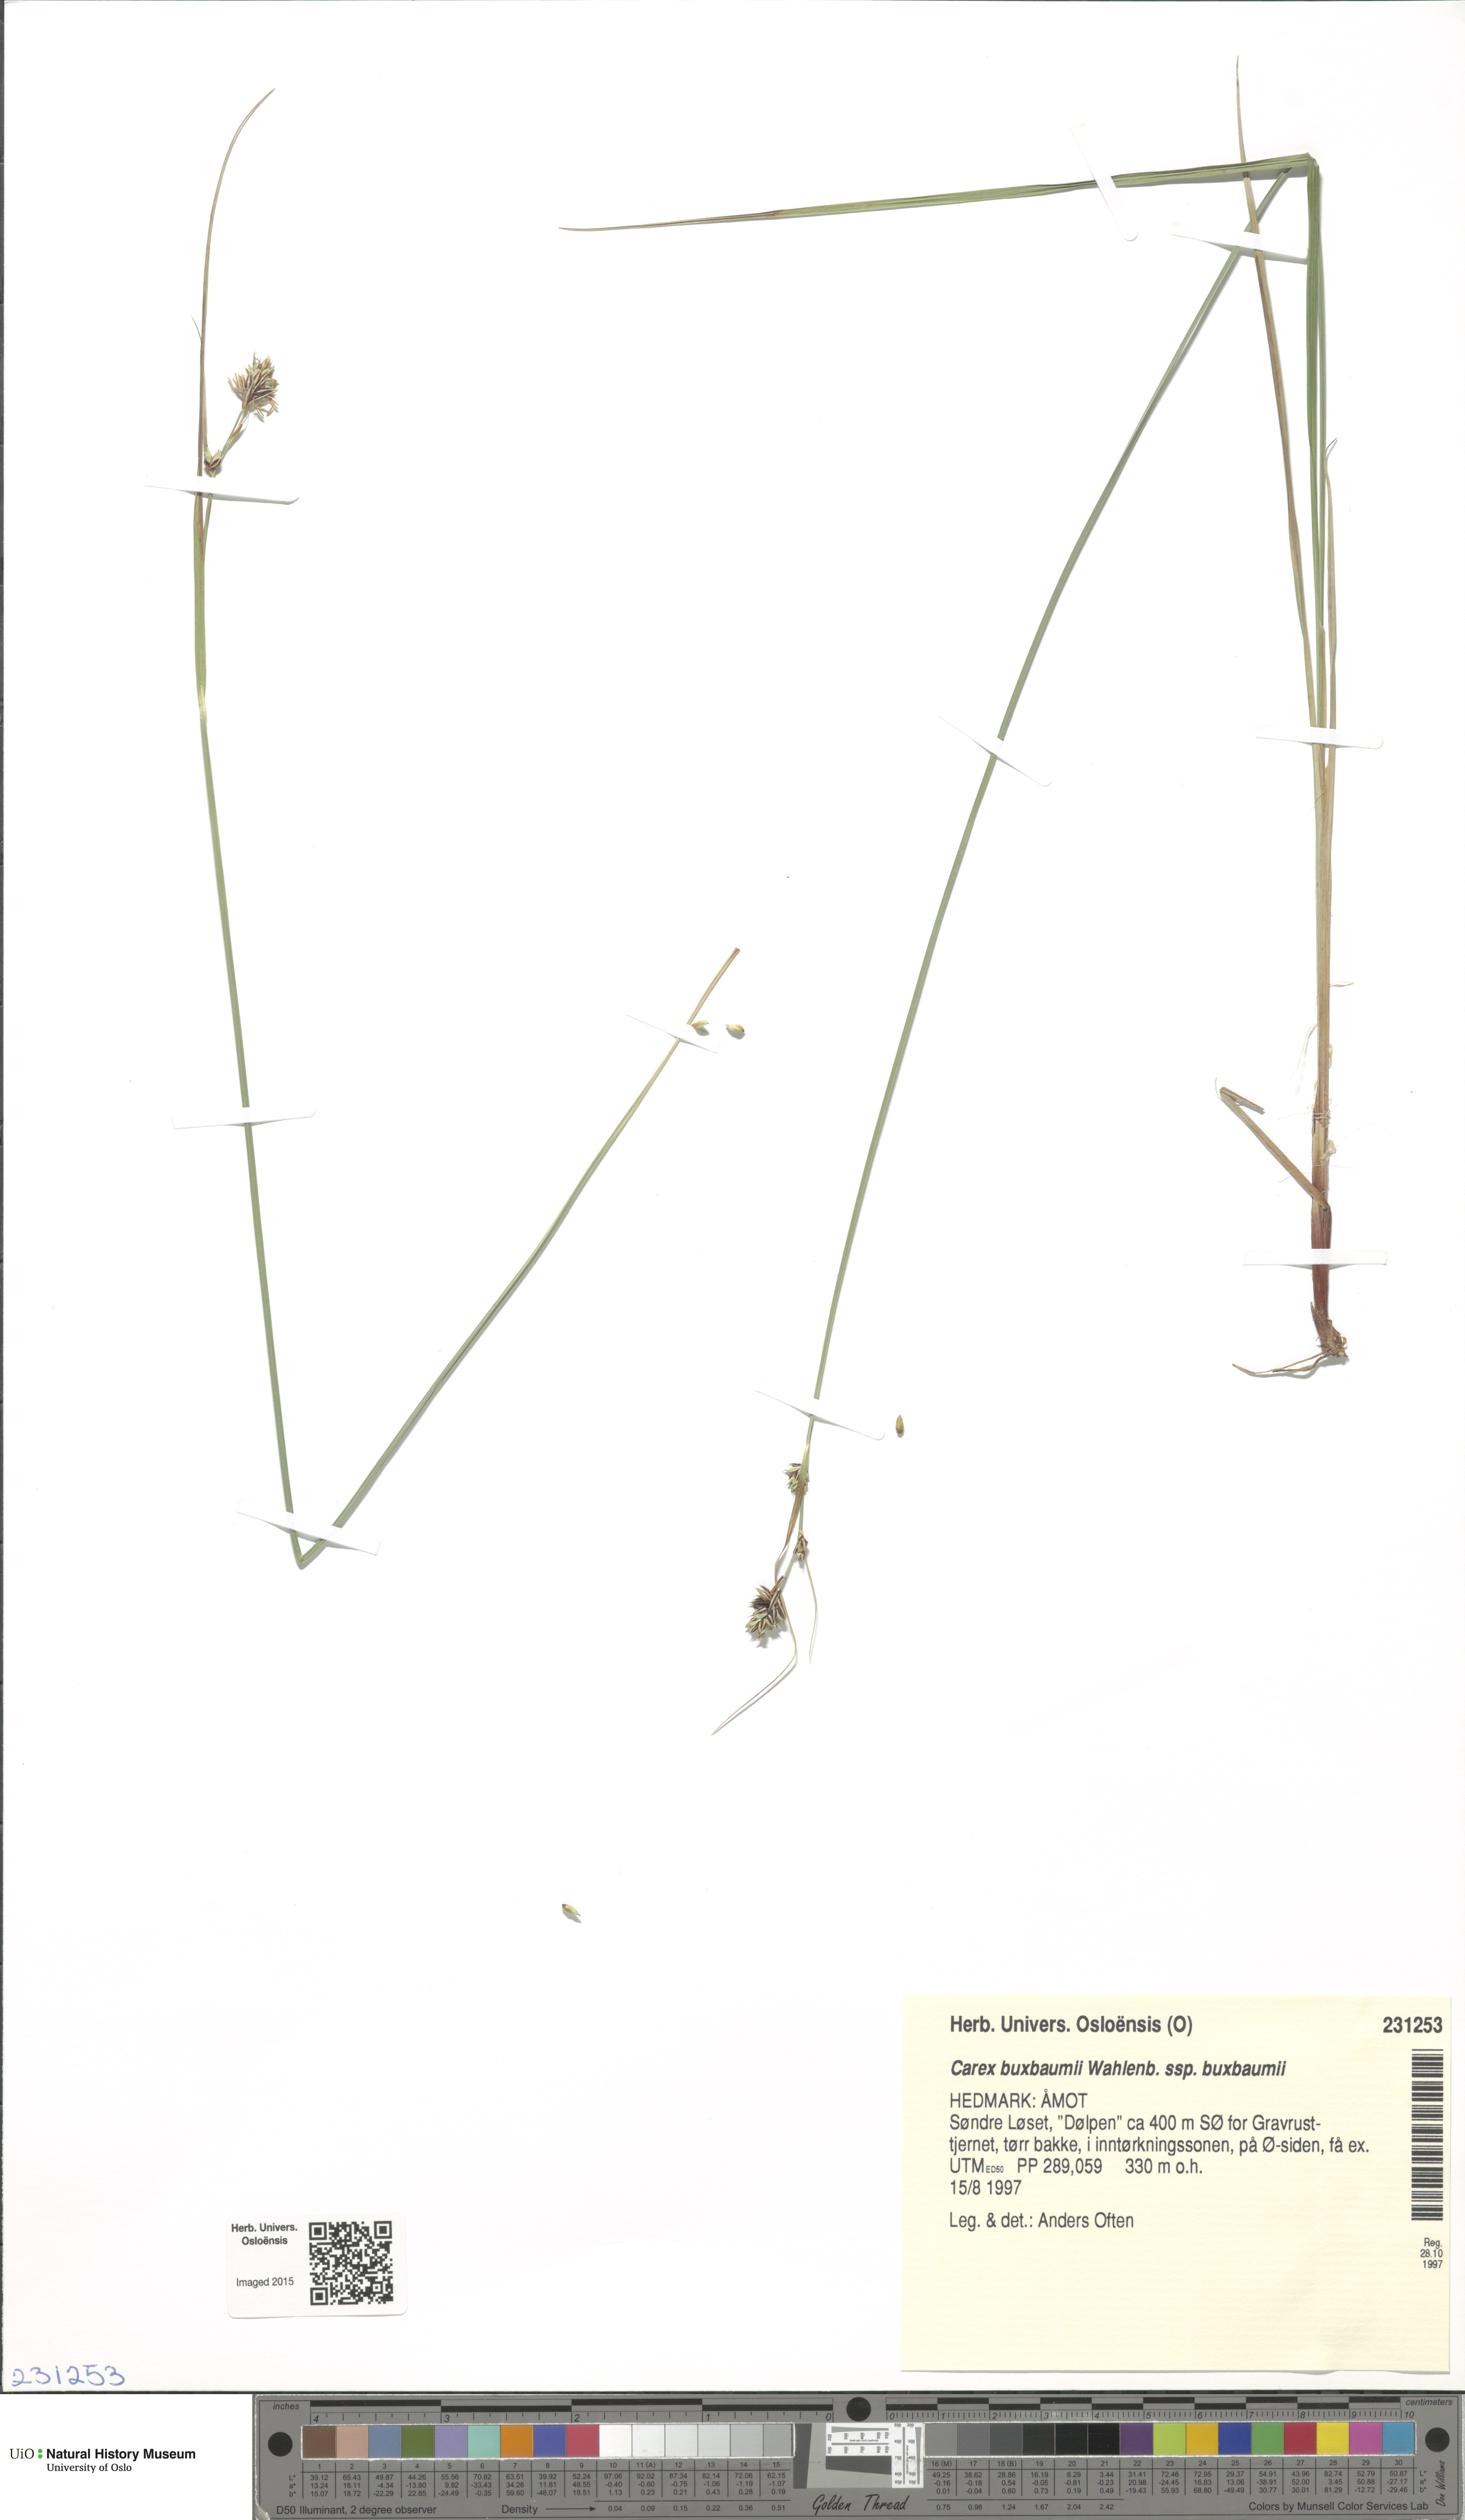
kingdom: Plantae
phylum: Tracheophyta
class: Liliopsida
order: Poales
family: Cyperaceae
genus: Carex
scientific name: Carex buxbaumii
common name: Club sedge
